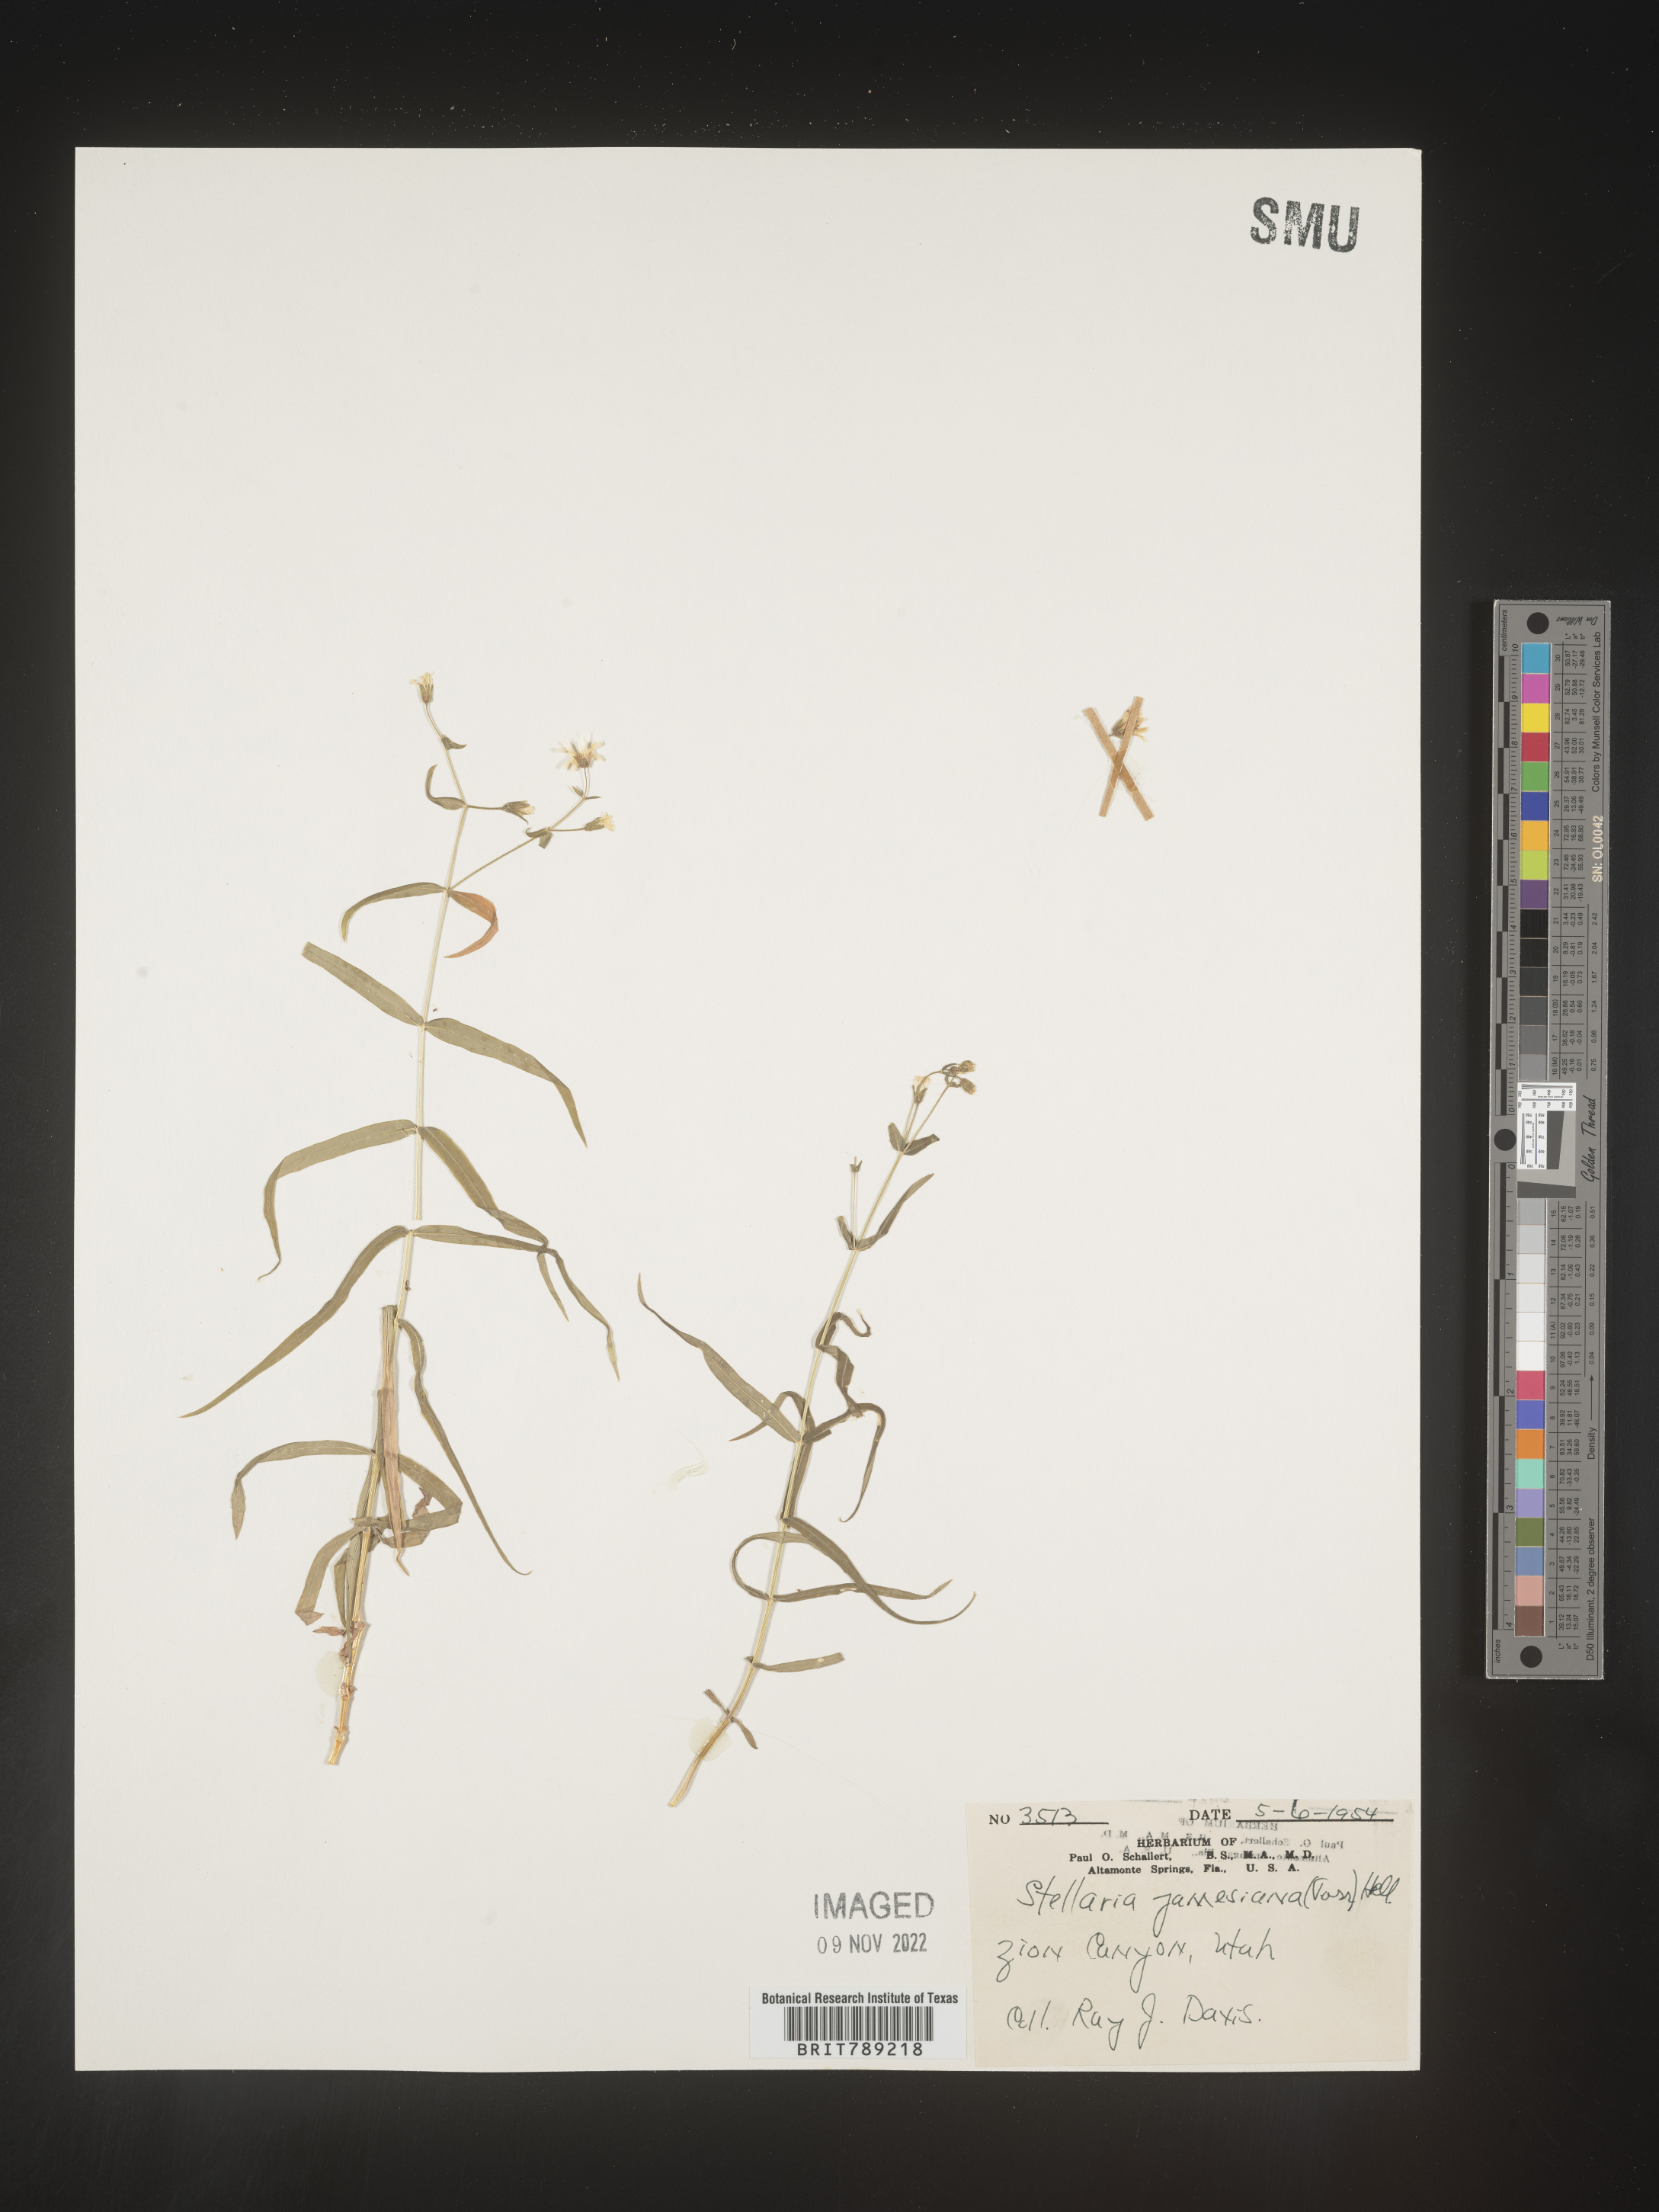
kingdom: Plantae
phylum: Tracheophyta
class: Magnoliopsida
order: Caryophyllales
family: Caryophyllaceae
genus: Arenaria
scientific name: Arenaria
